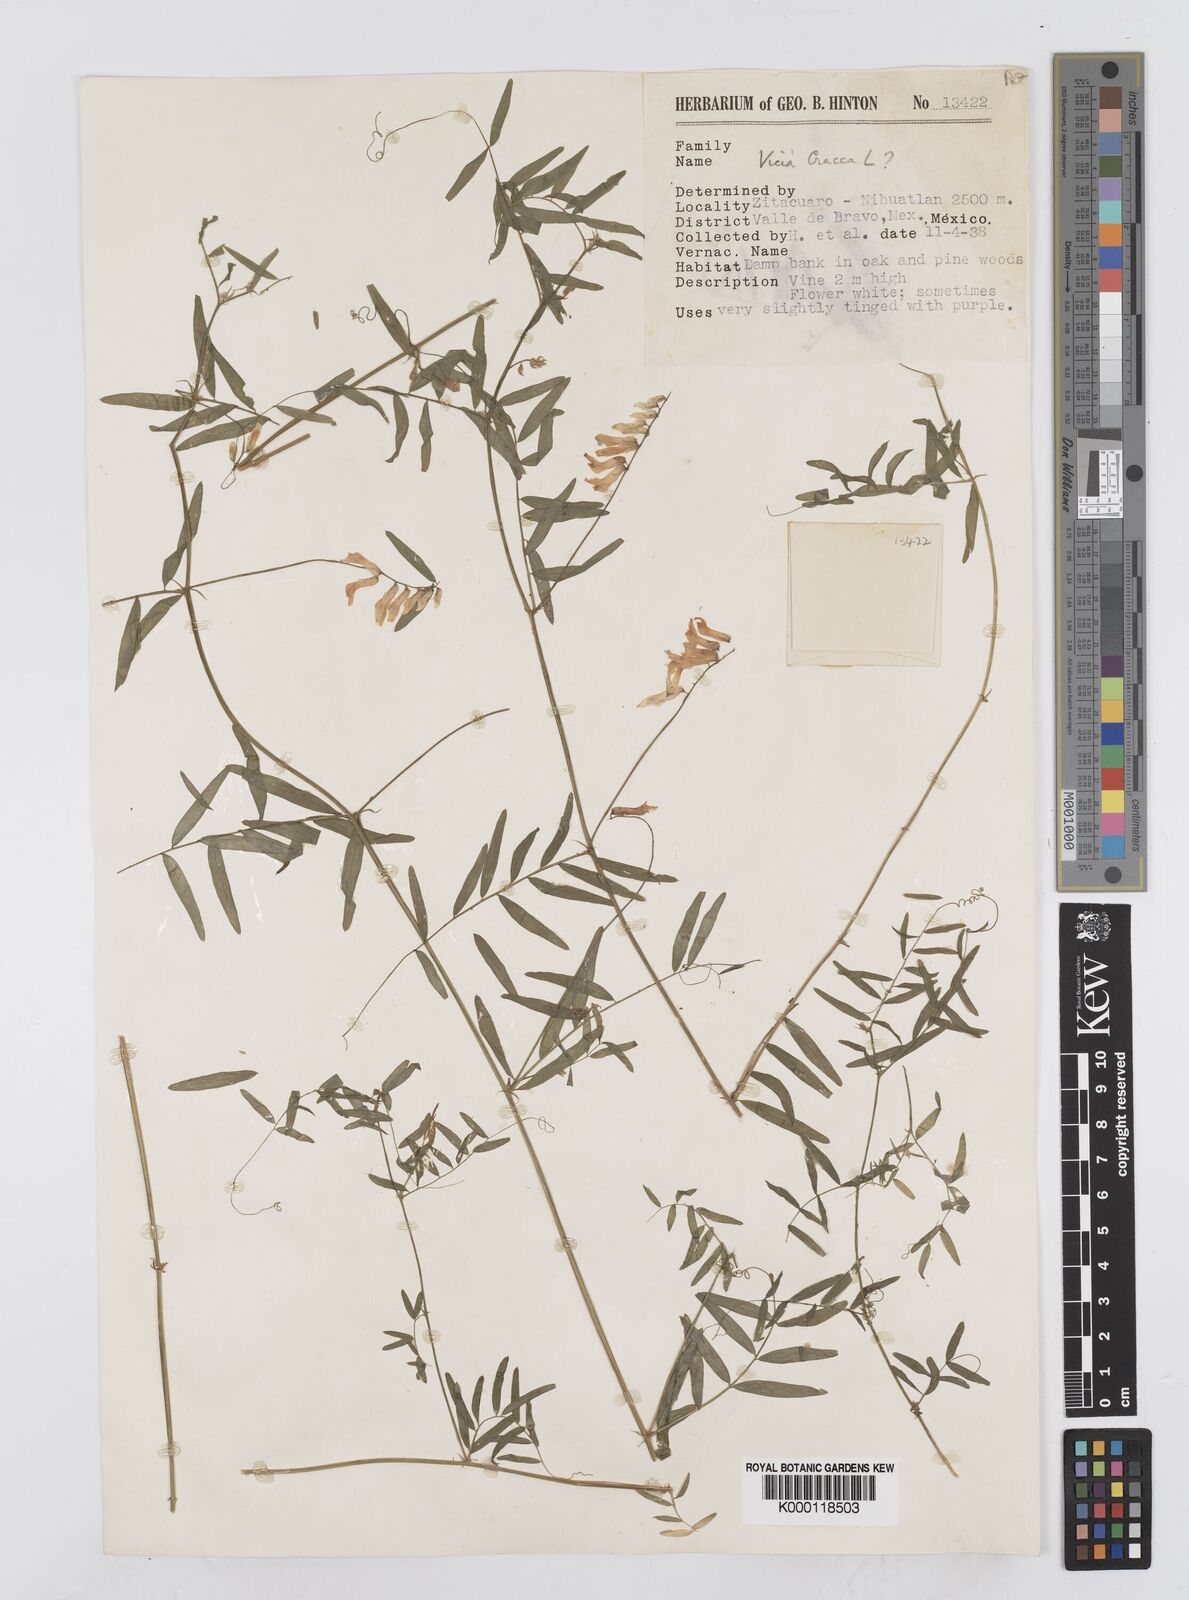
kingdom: Plantae
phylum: Tracheophyta
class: Magnoliopsida
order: Fabales
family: Fabaceae
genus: Vicia
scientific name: Vicia cracca
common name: Bird vetch
